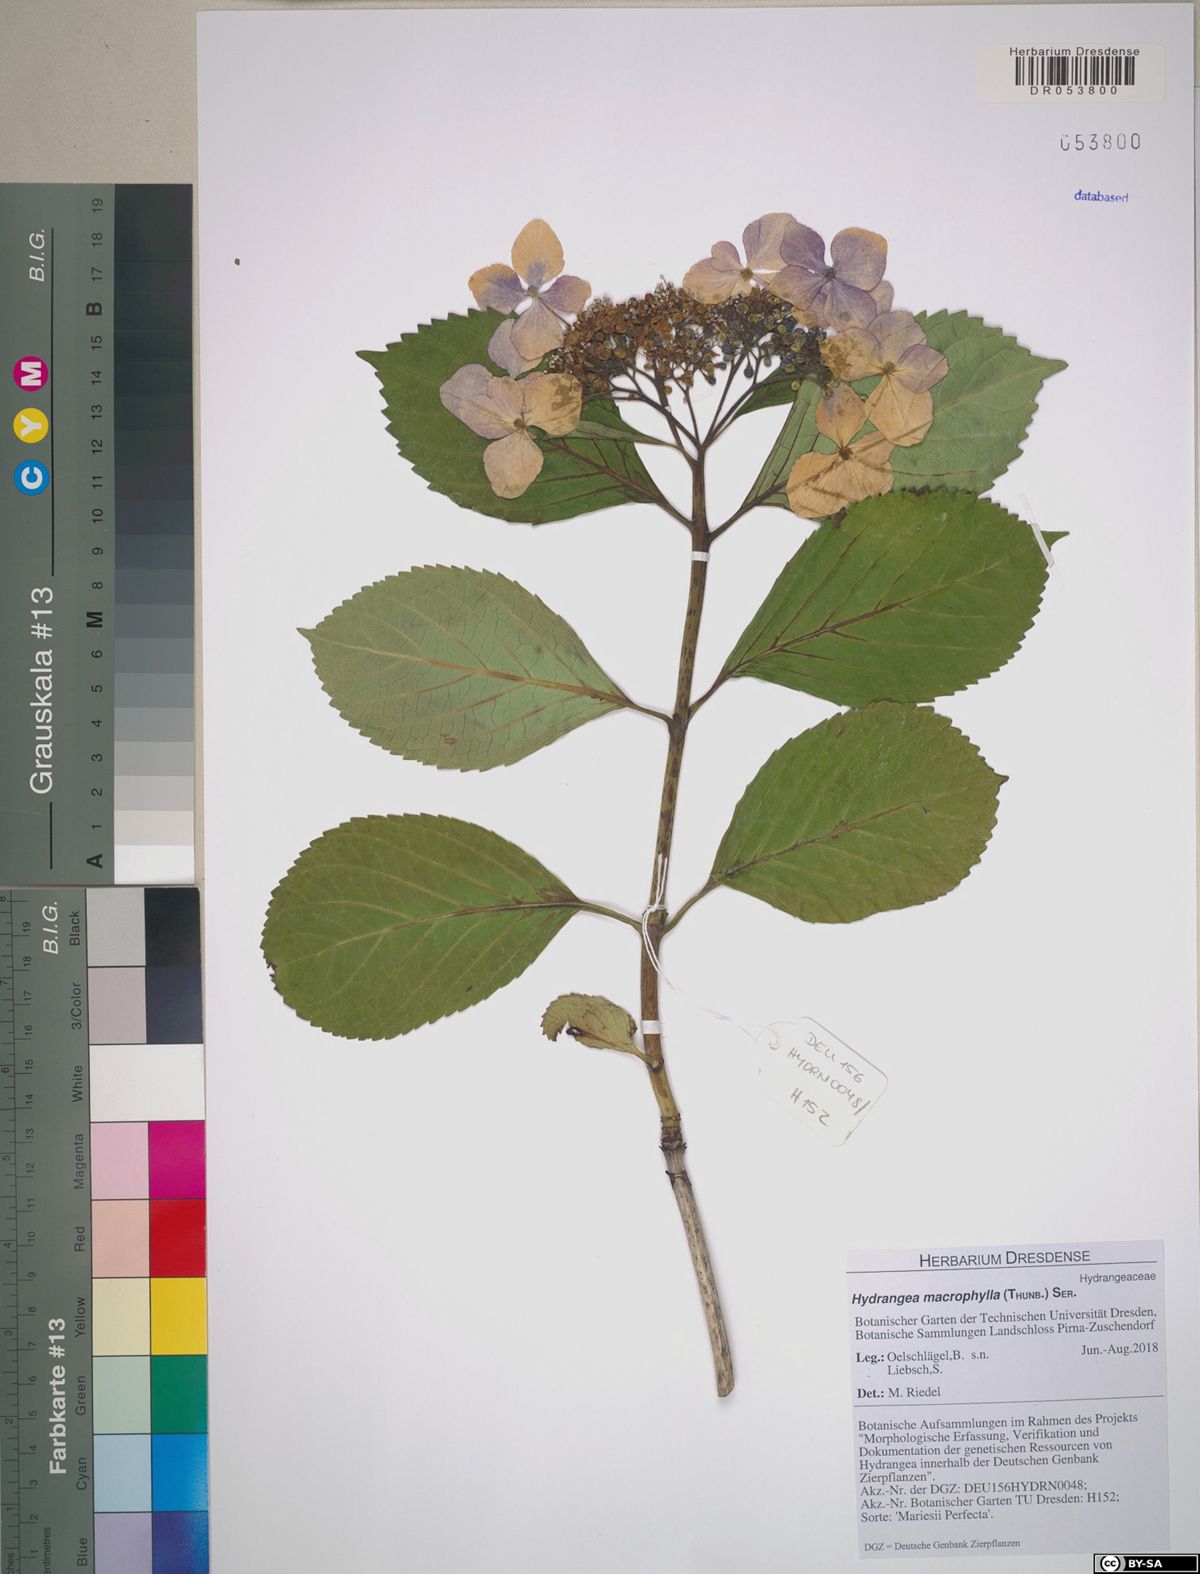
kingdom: Plantae
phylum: Tracheophyta
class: Magnoliopsida
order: Cornales
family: Hydrangeaceae
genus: Hydrangea
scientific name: Hydrangea macrophylla
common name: Hydrangea
